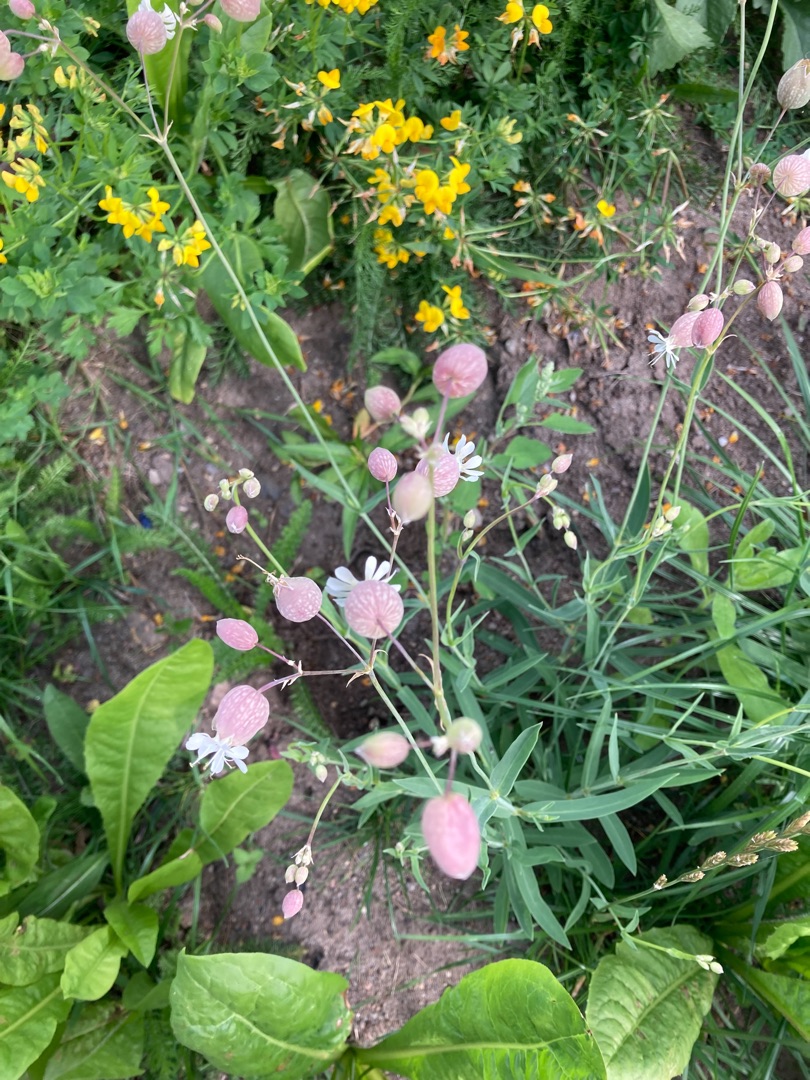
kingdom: Plantae
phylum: Tracheophyta
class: Magnoliopsida
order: Caryophyllales
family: Caryophyllaceae
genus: Silene
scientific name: Silene vulgaris
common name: Blæresmælde
